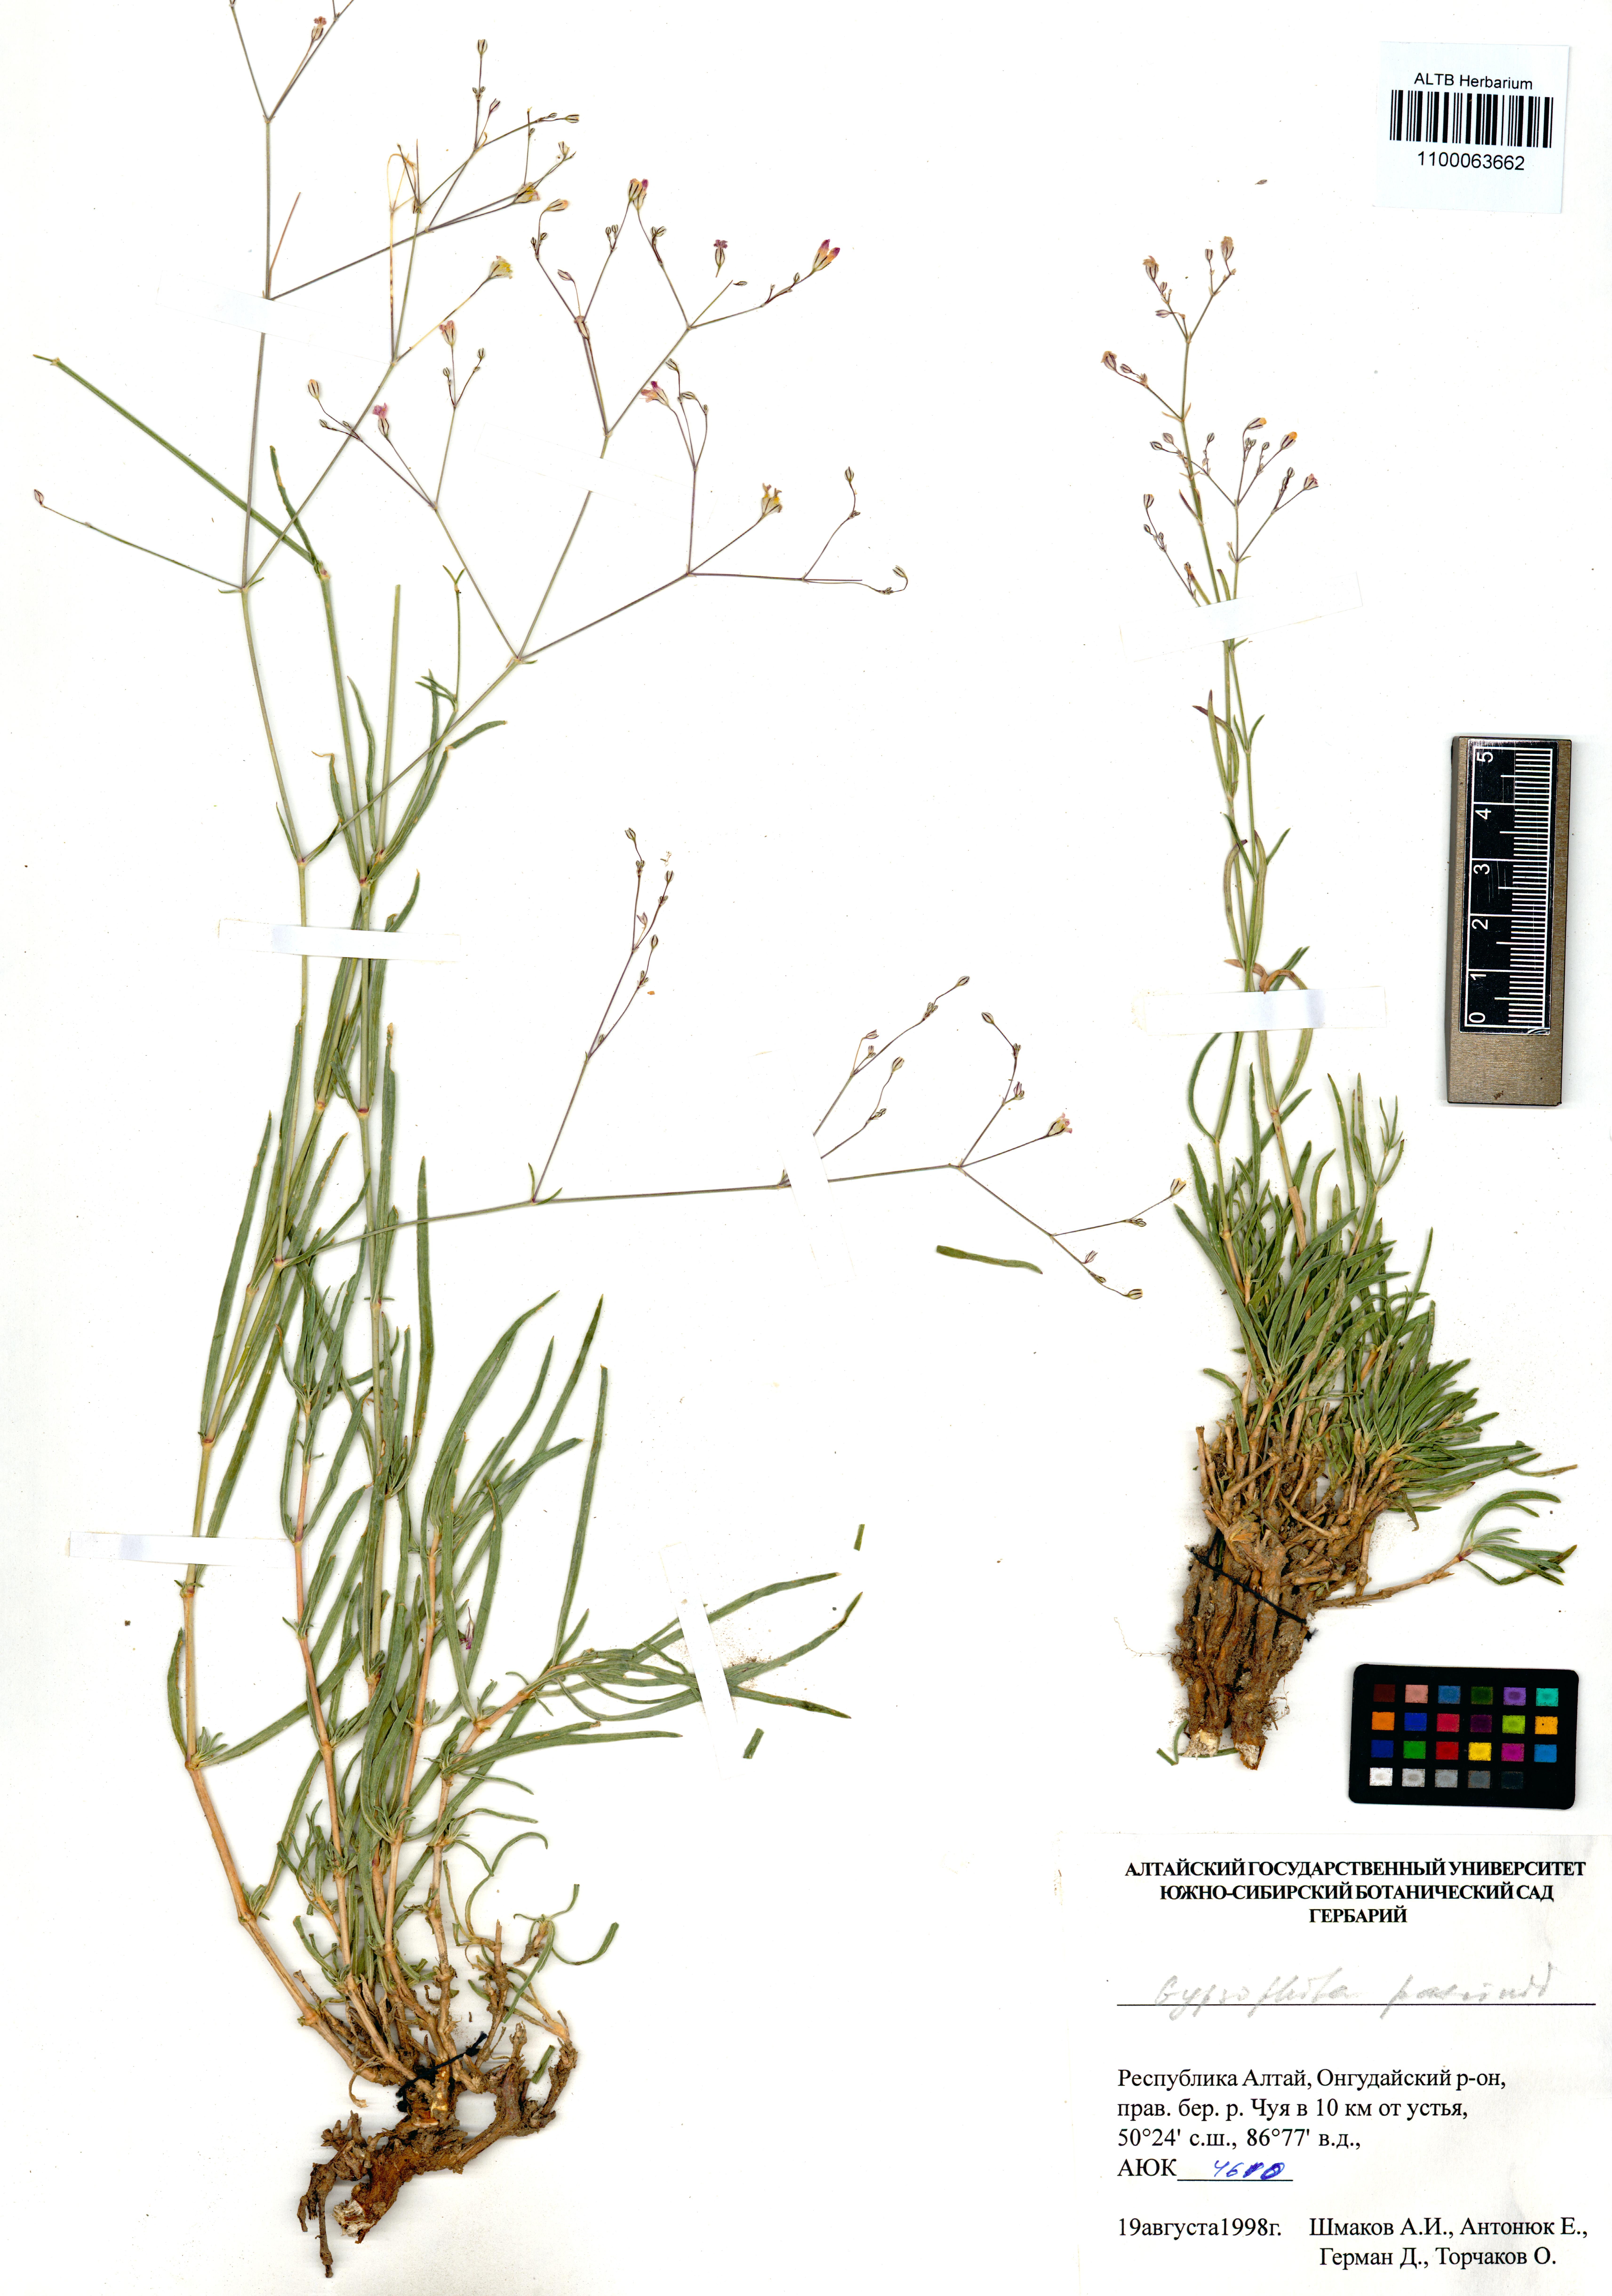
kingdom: Plantae
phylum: Tracheophyta
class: Magnoliopsida
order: Caryophyllales
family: Caryophyllaceae
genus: Gypsophila
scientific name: Gypsophila patrinii
